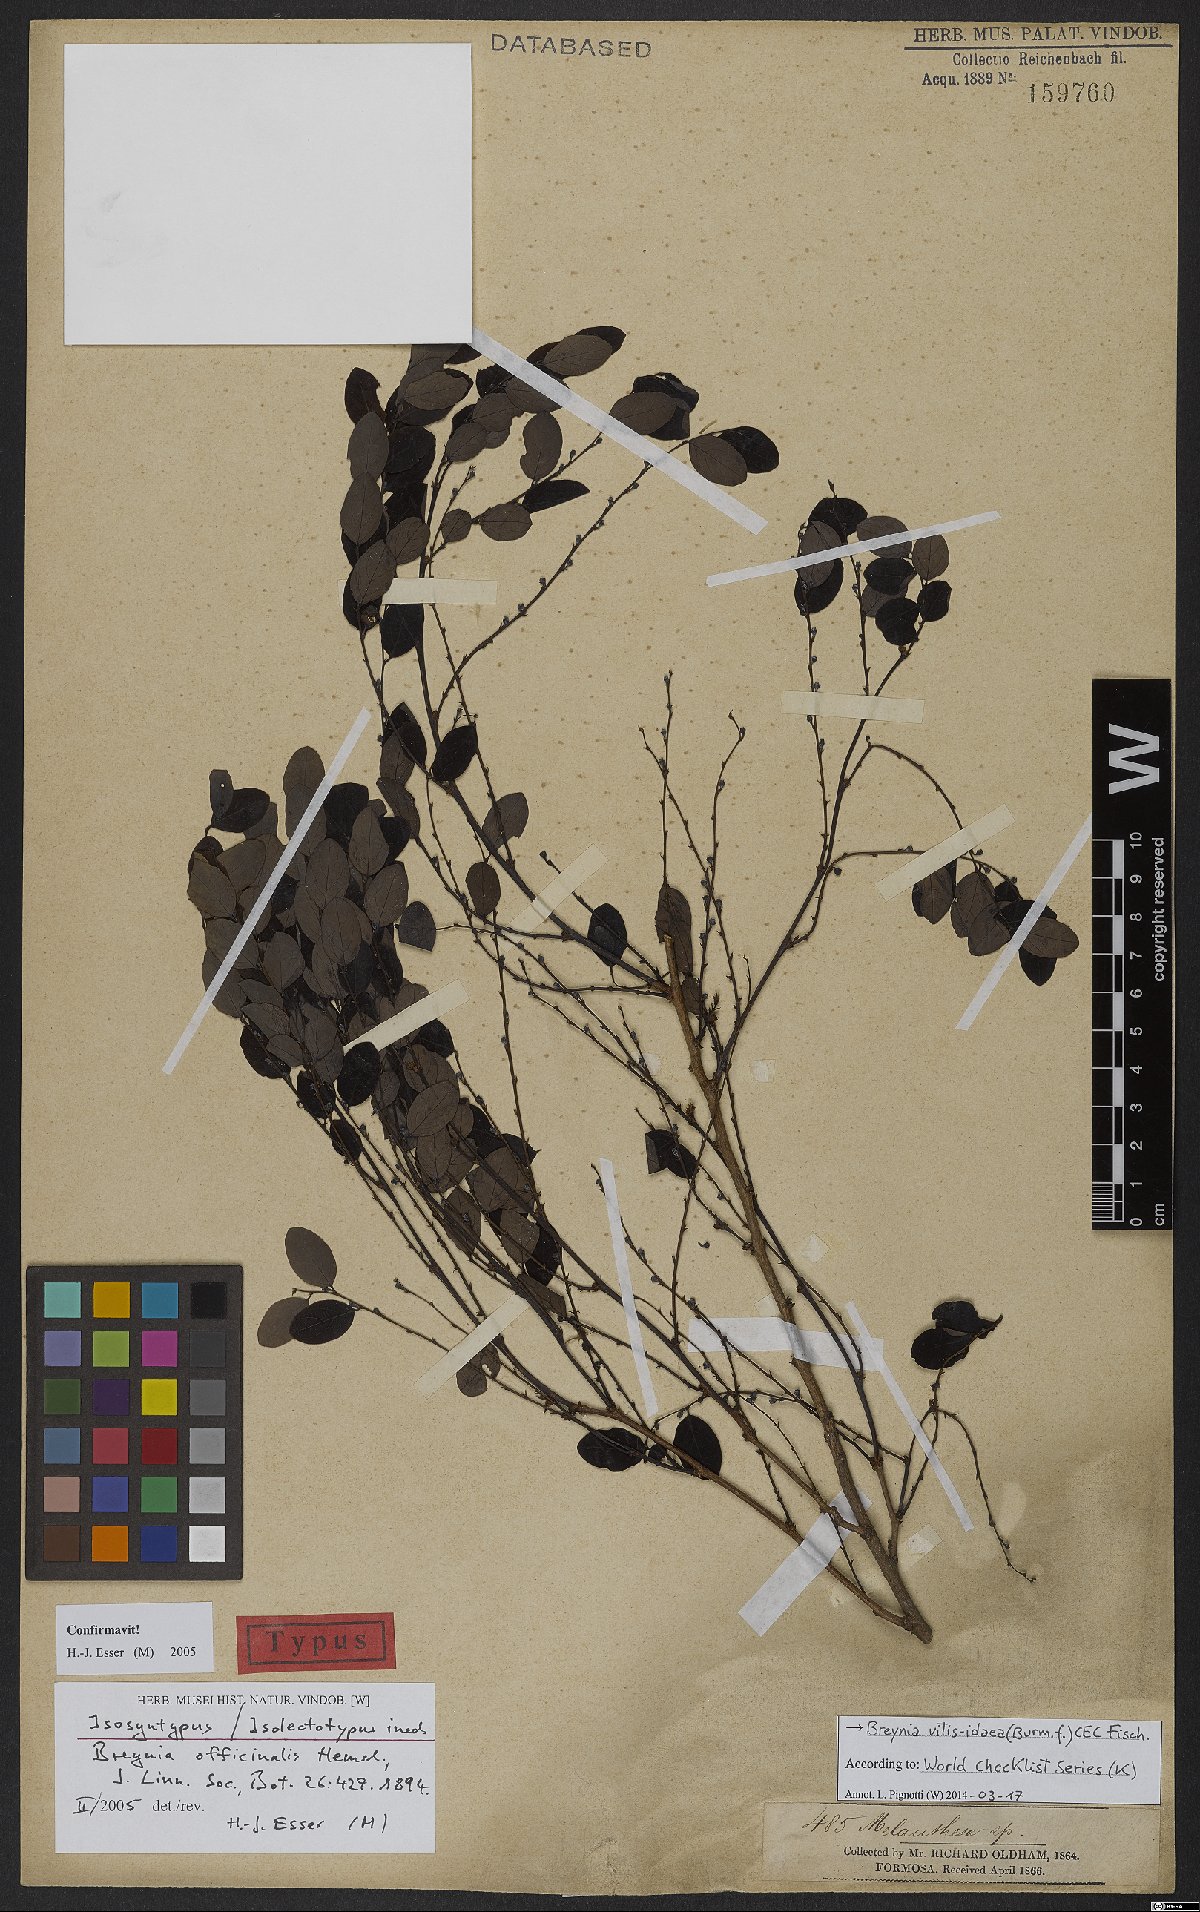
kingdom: Plantae
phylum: Tracheophyta
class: Magnoliopsida
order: Malpighiales
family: Phyllanthaceae
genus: Breynia
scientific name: Breynia vitis-idaea
